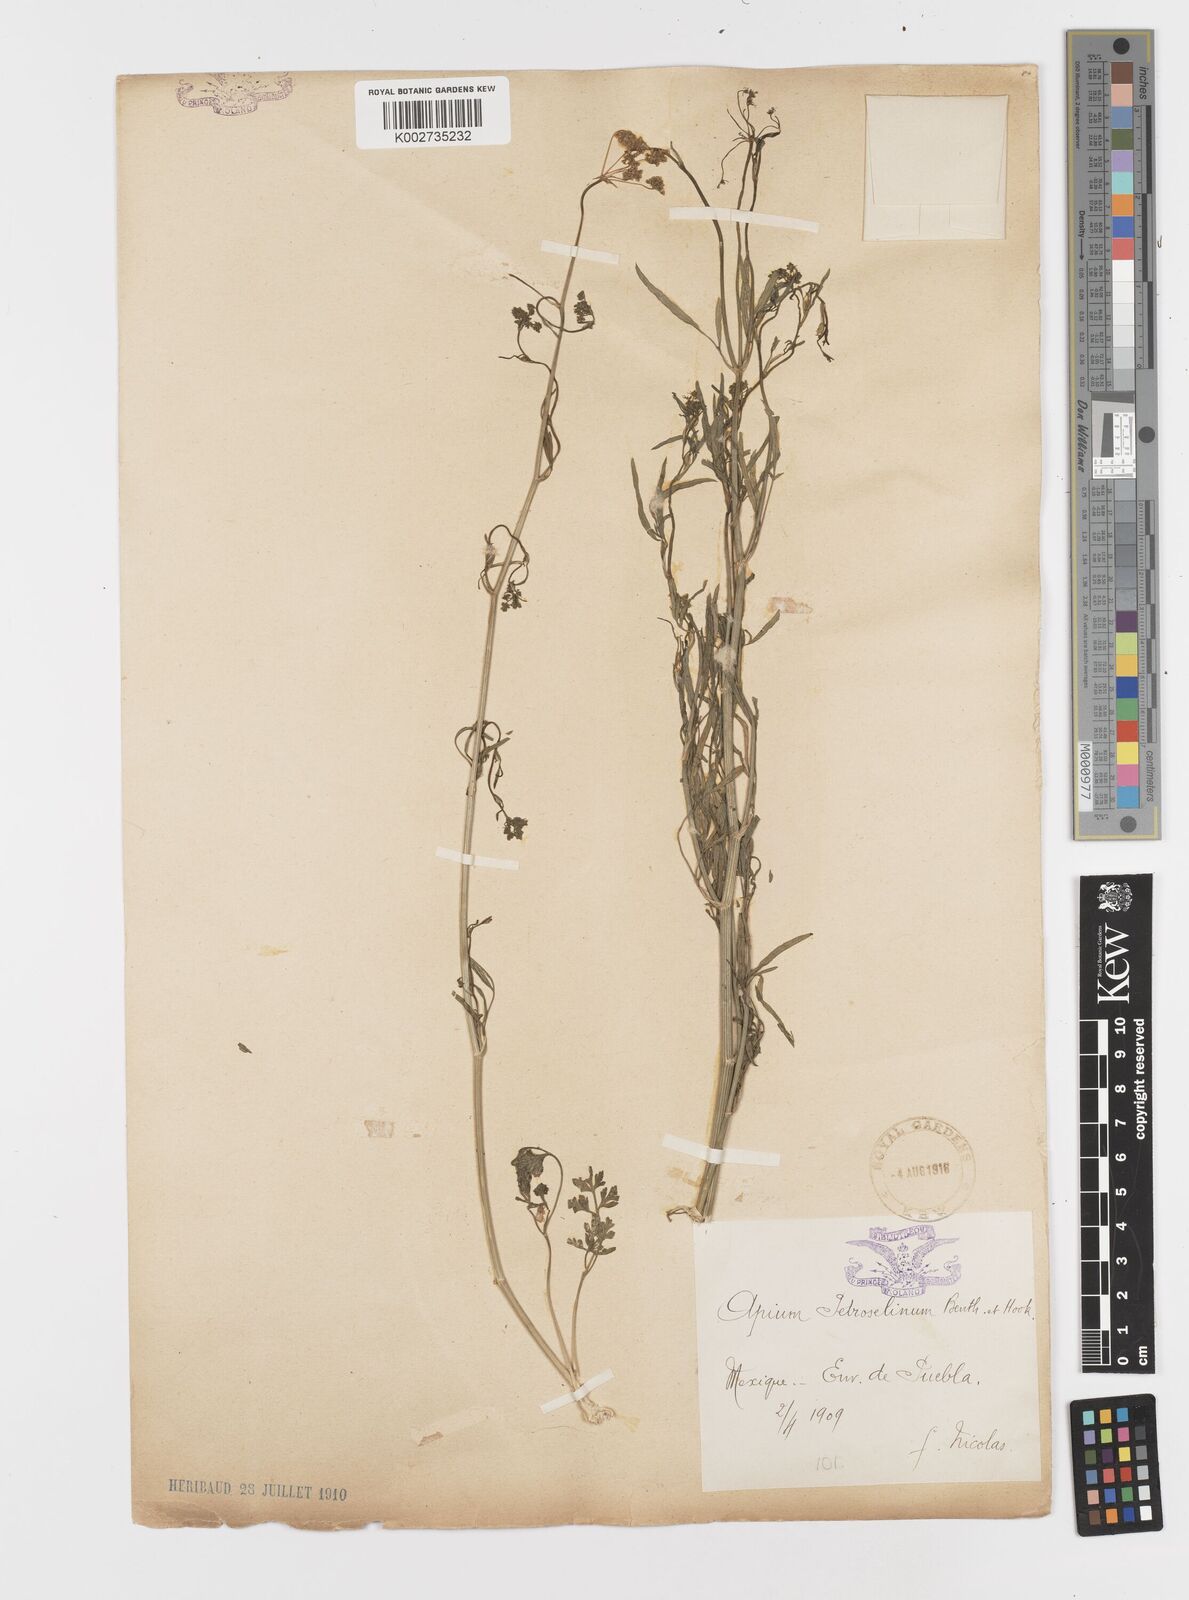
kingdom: Plantae
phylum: Tracheophyta
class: Magnoliopsida
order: Apiales
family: Apiaceae
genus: Petroselinum
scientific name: Petroselinum
